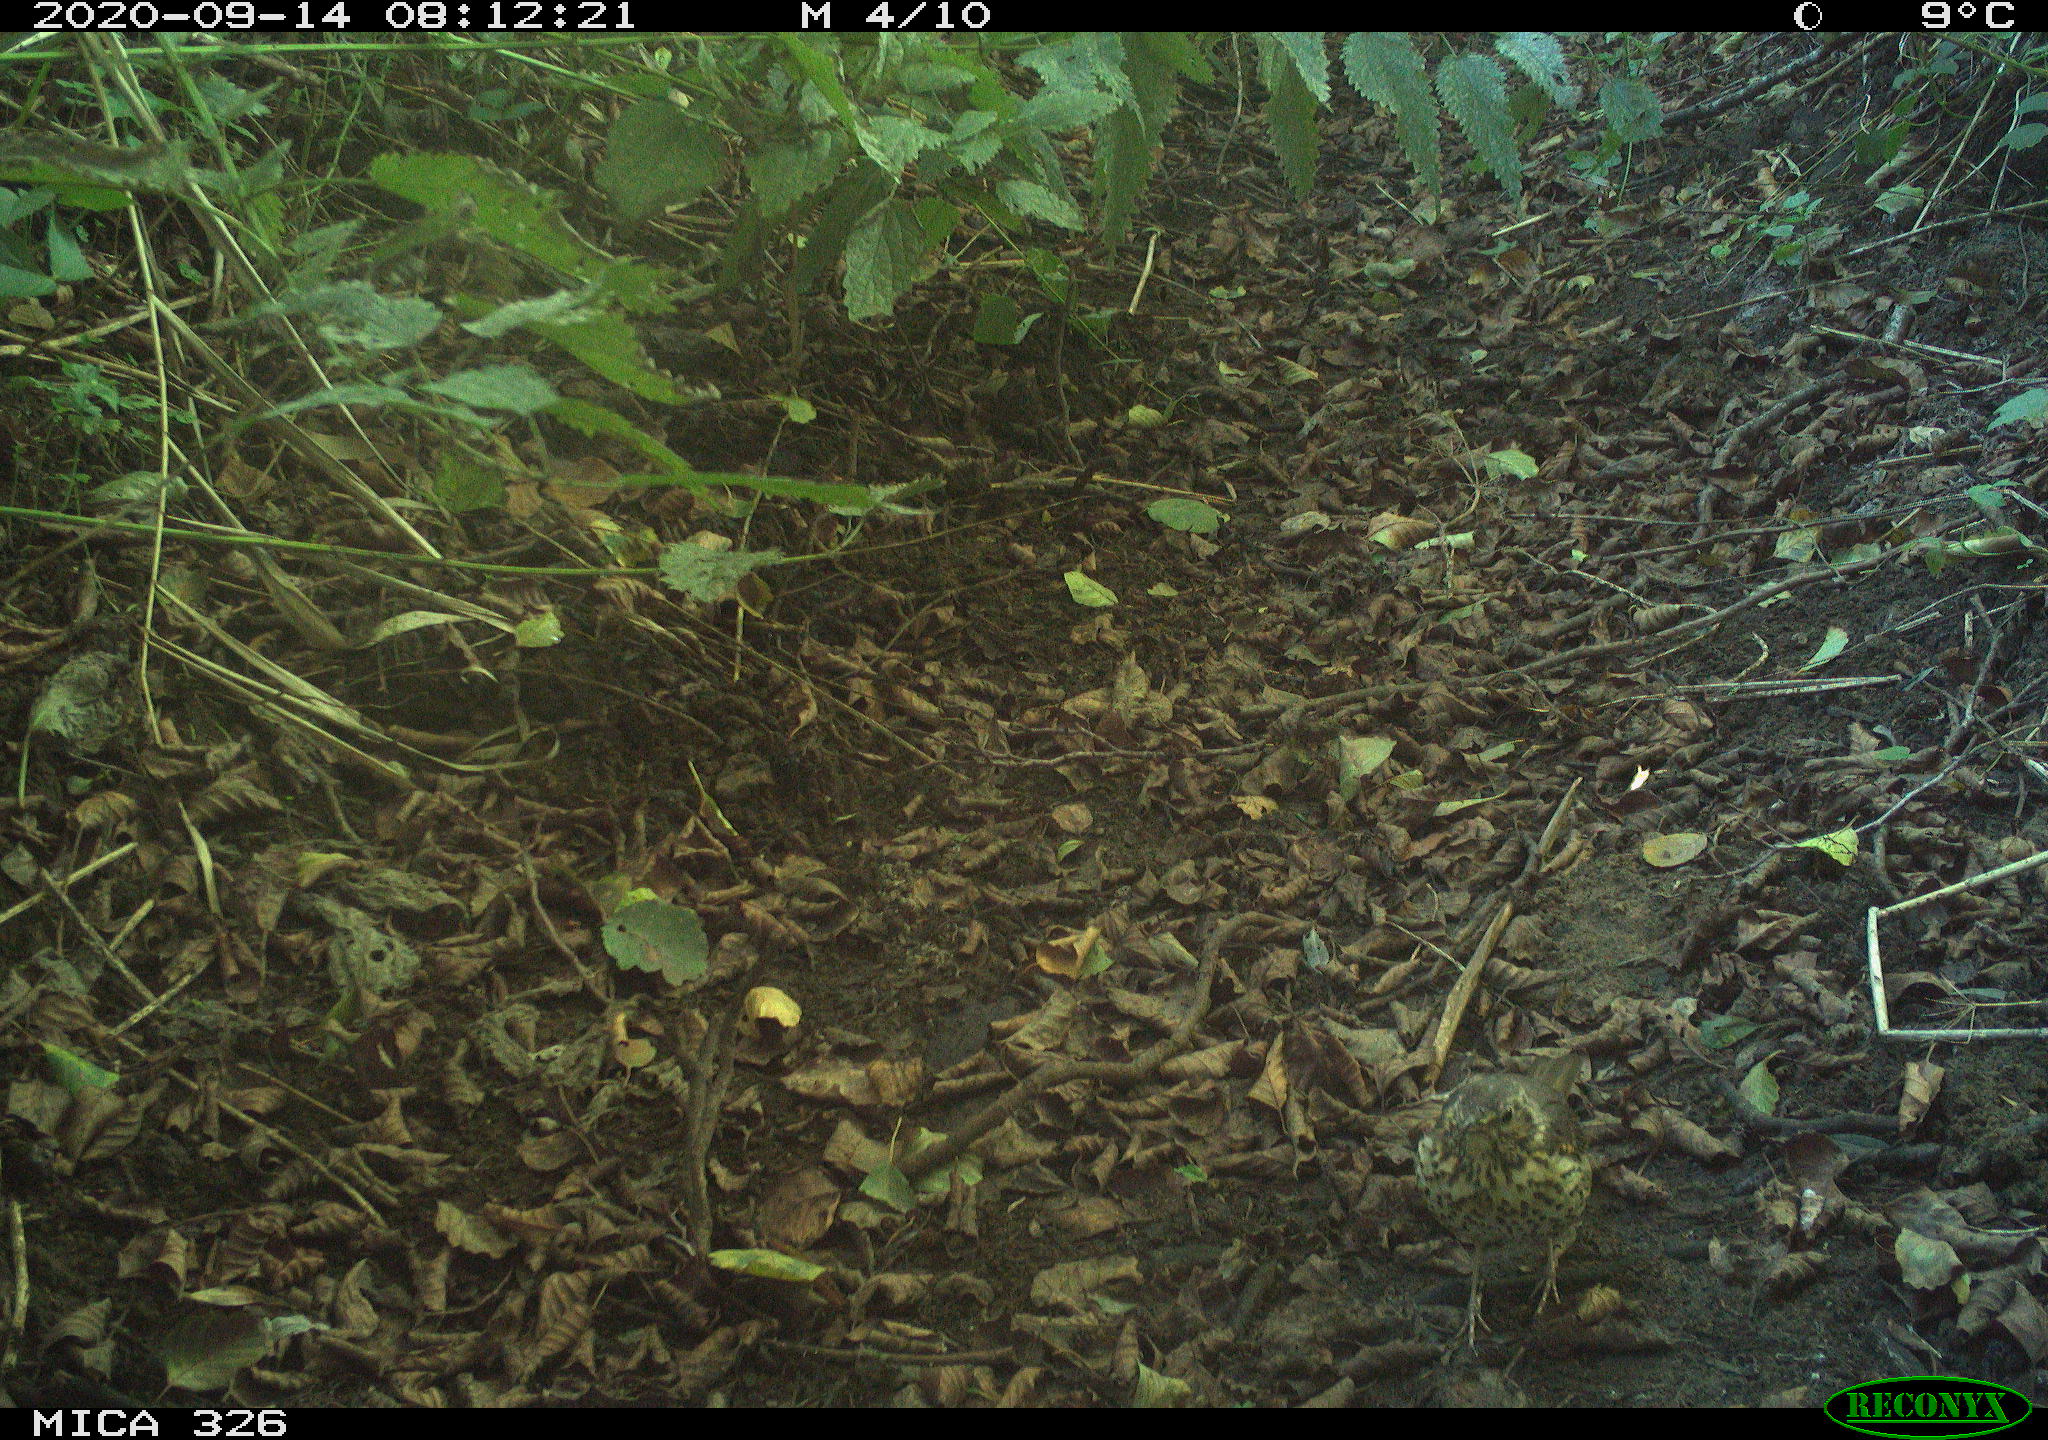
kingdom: Animalia
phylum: Chordata
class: Aves
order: Passeriformes
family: Turdidae
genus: Turdus
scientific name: Turdus philomelos
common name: Song thrush
